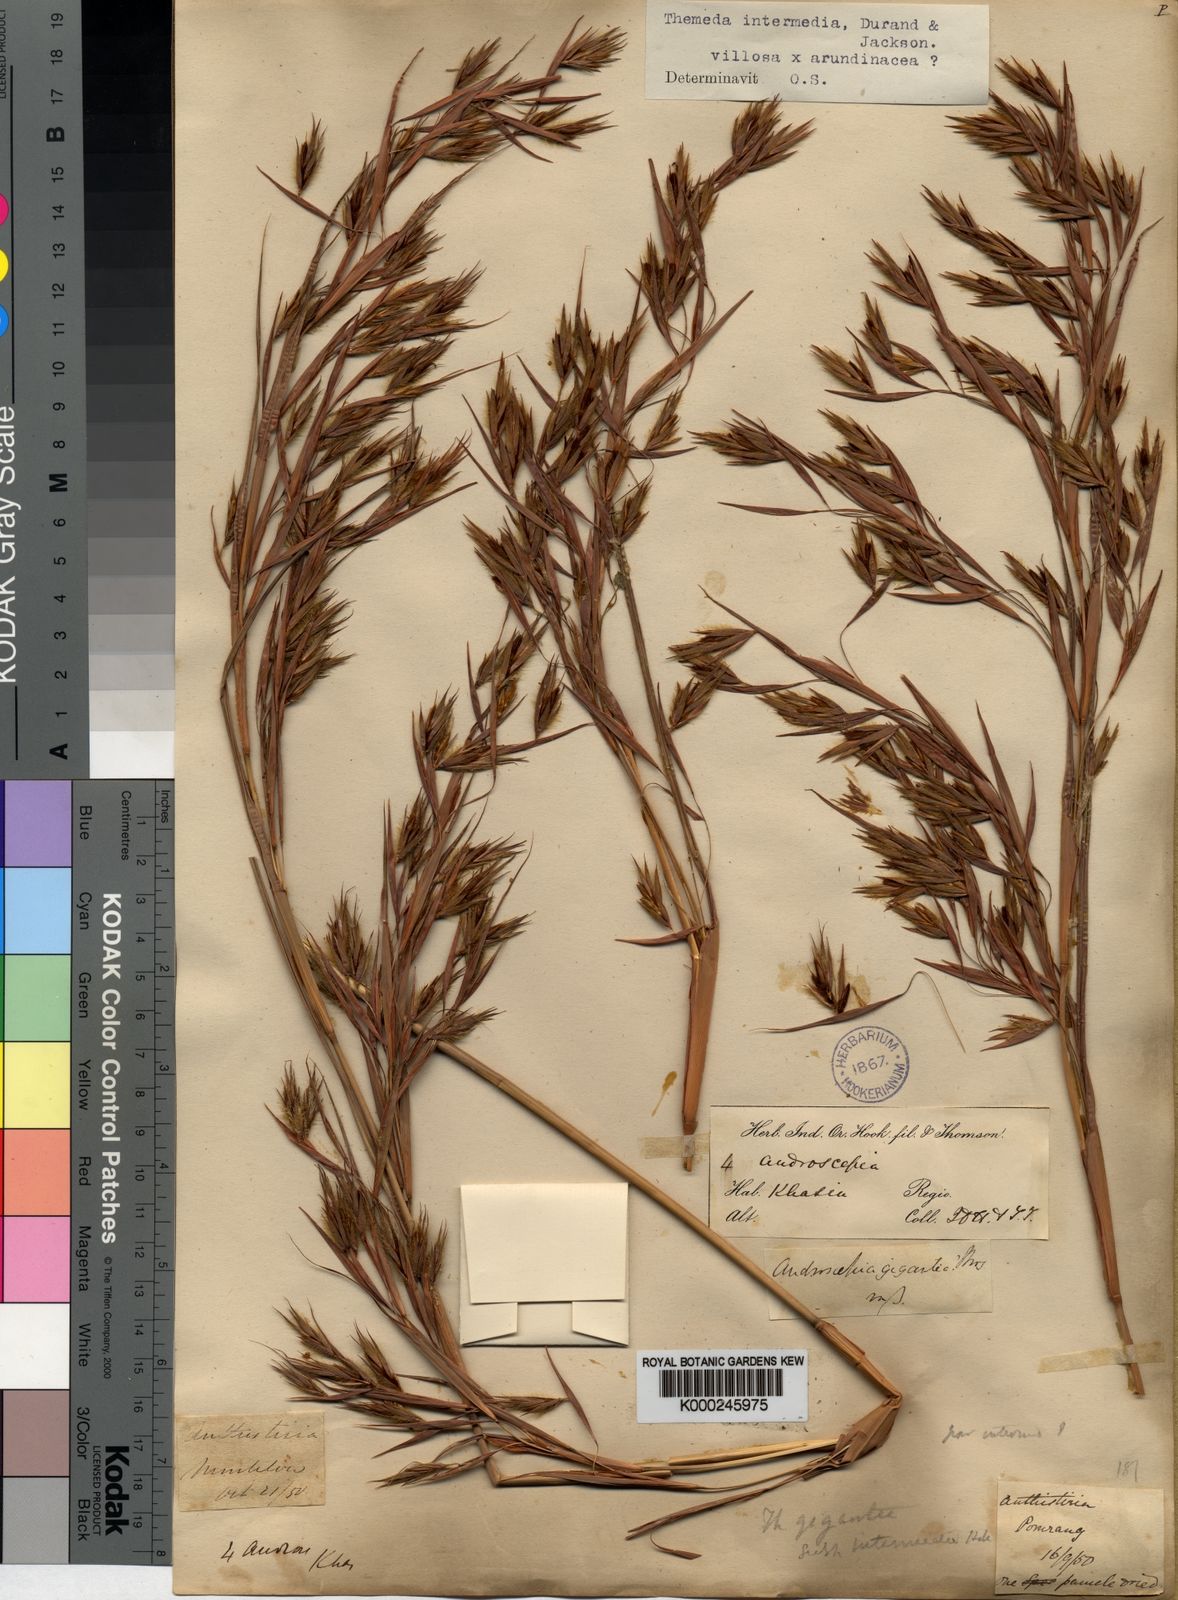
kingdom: Plantae
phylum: Tracheophyta
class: Liliopsida
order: Poales
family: Poaceae
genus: Themeda
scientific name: Themeda
